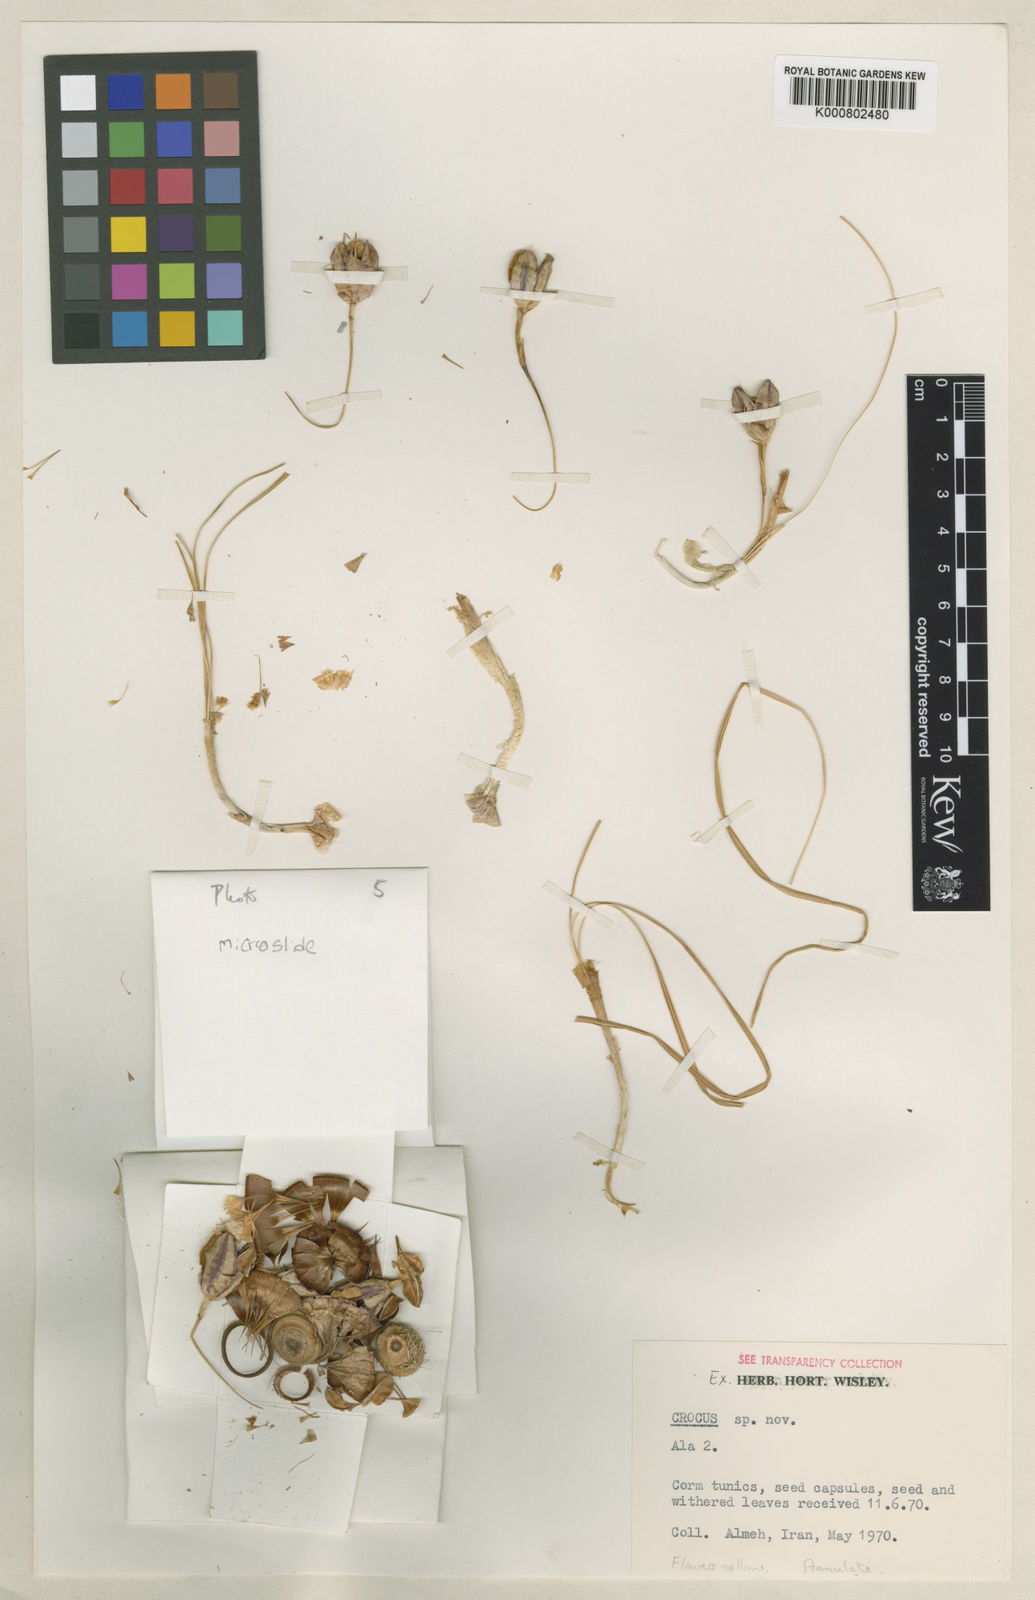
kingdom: Plantae
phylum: Tracheophyta
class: Liliopsida
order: Asparagales
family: Iridaceae
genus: Crocus
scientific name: Crocus almehensis
